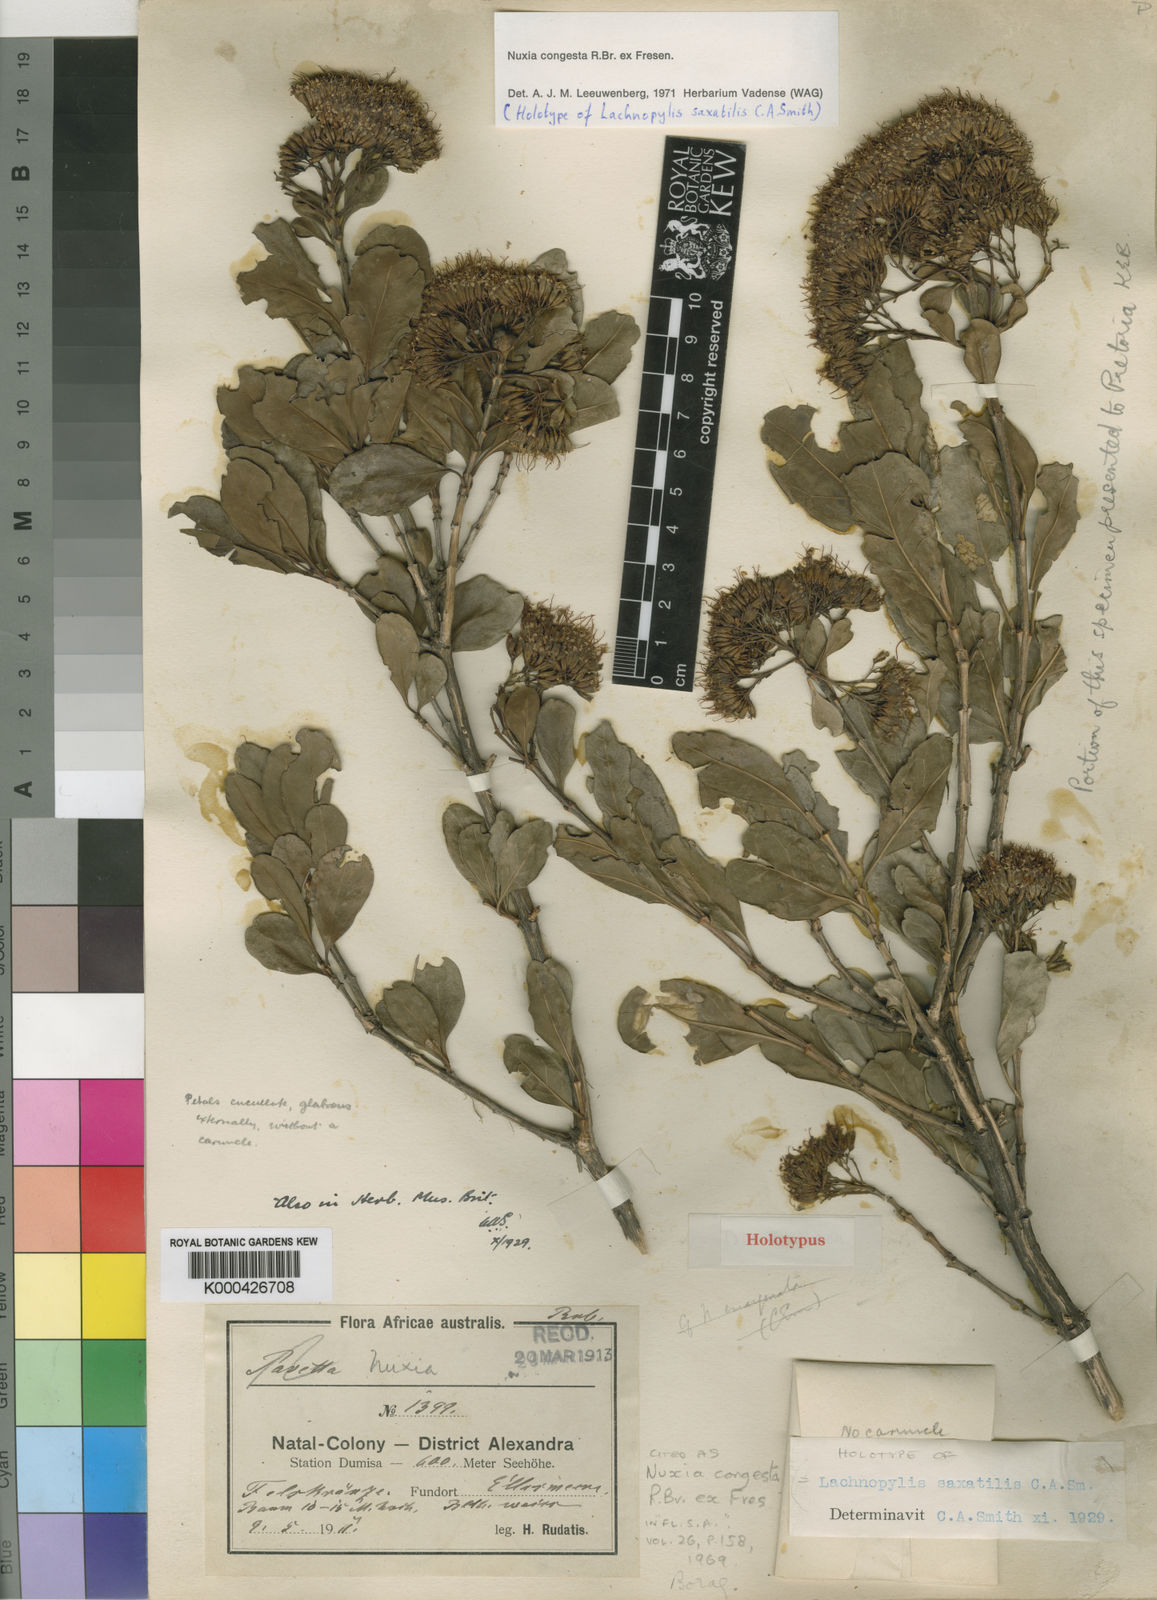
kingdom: Plantae
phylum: Tracheophyta
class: Magnoliopsida
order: Lamiales
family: Stilbaceae
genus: Nuxia
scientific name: Nuxia congesta
